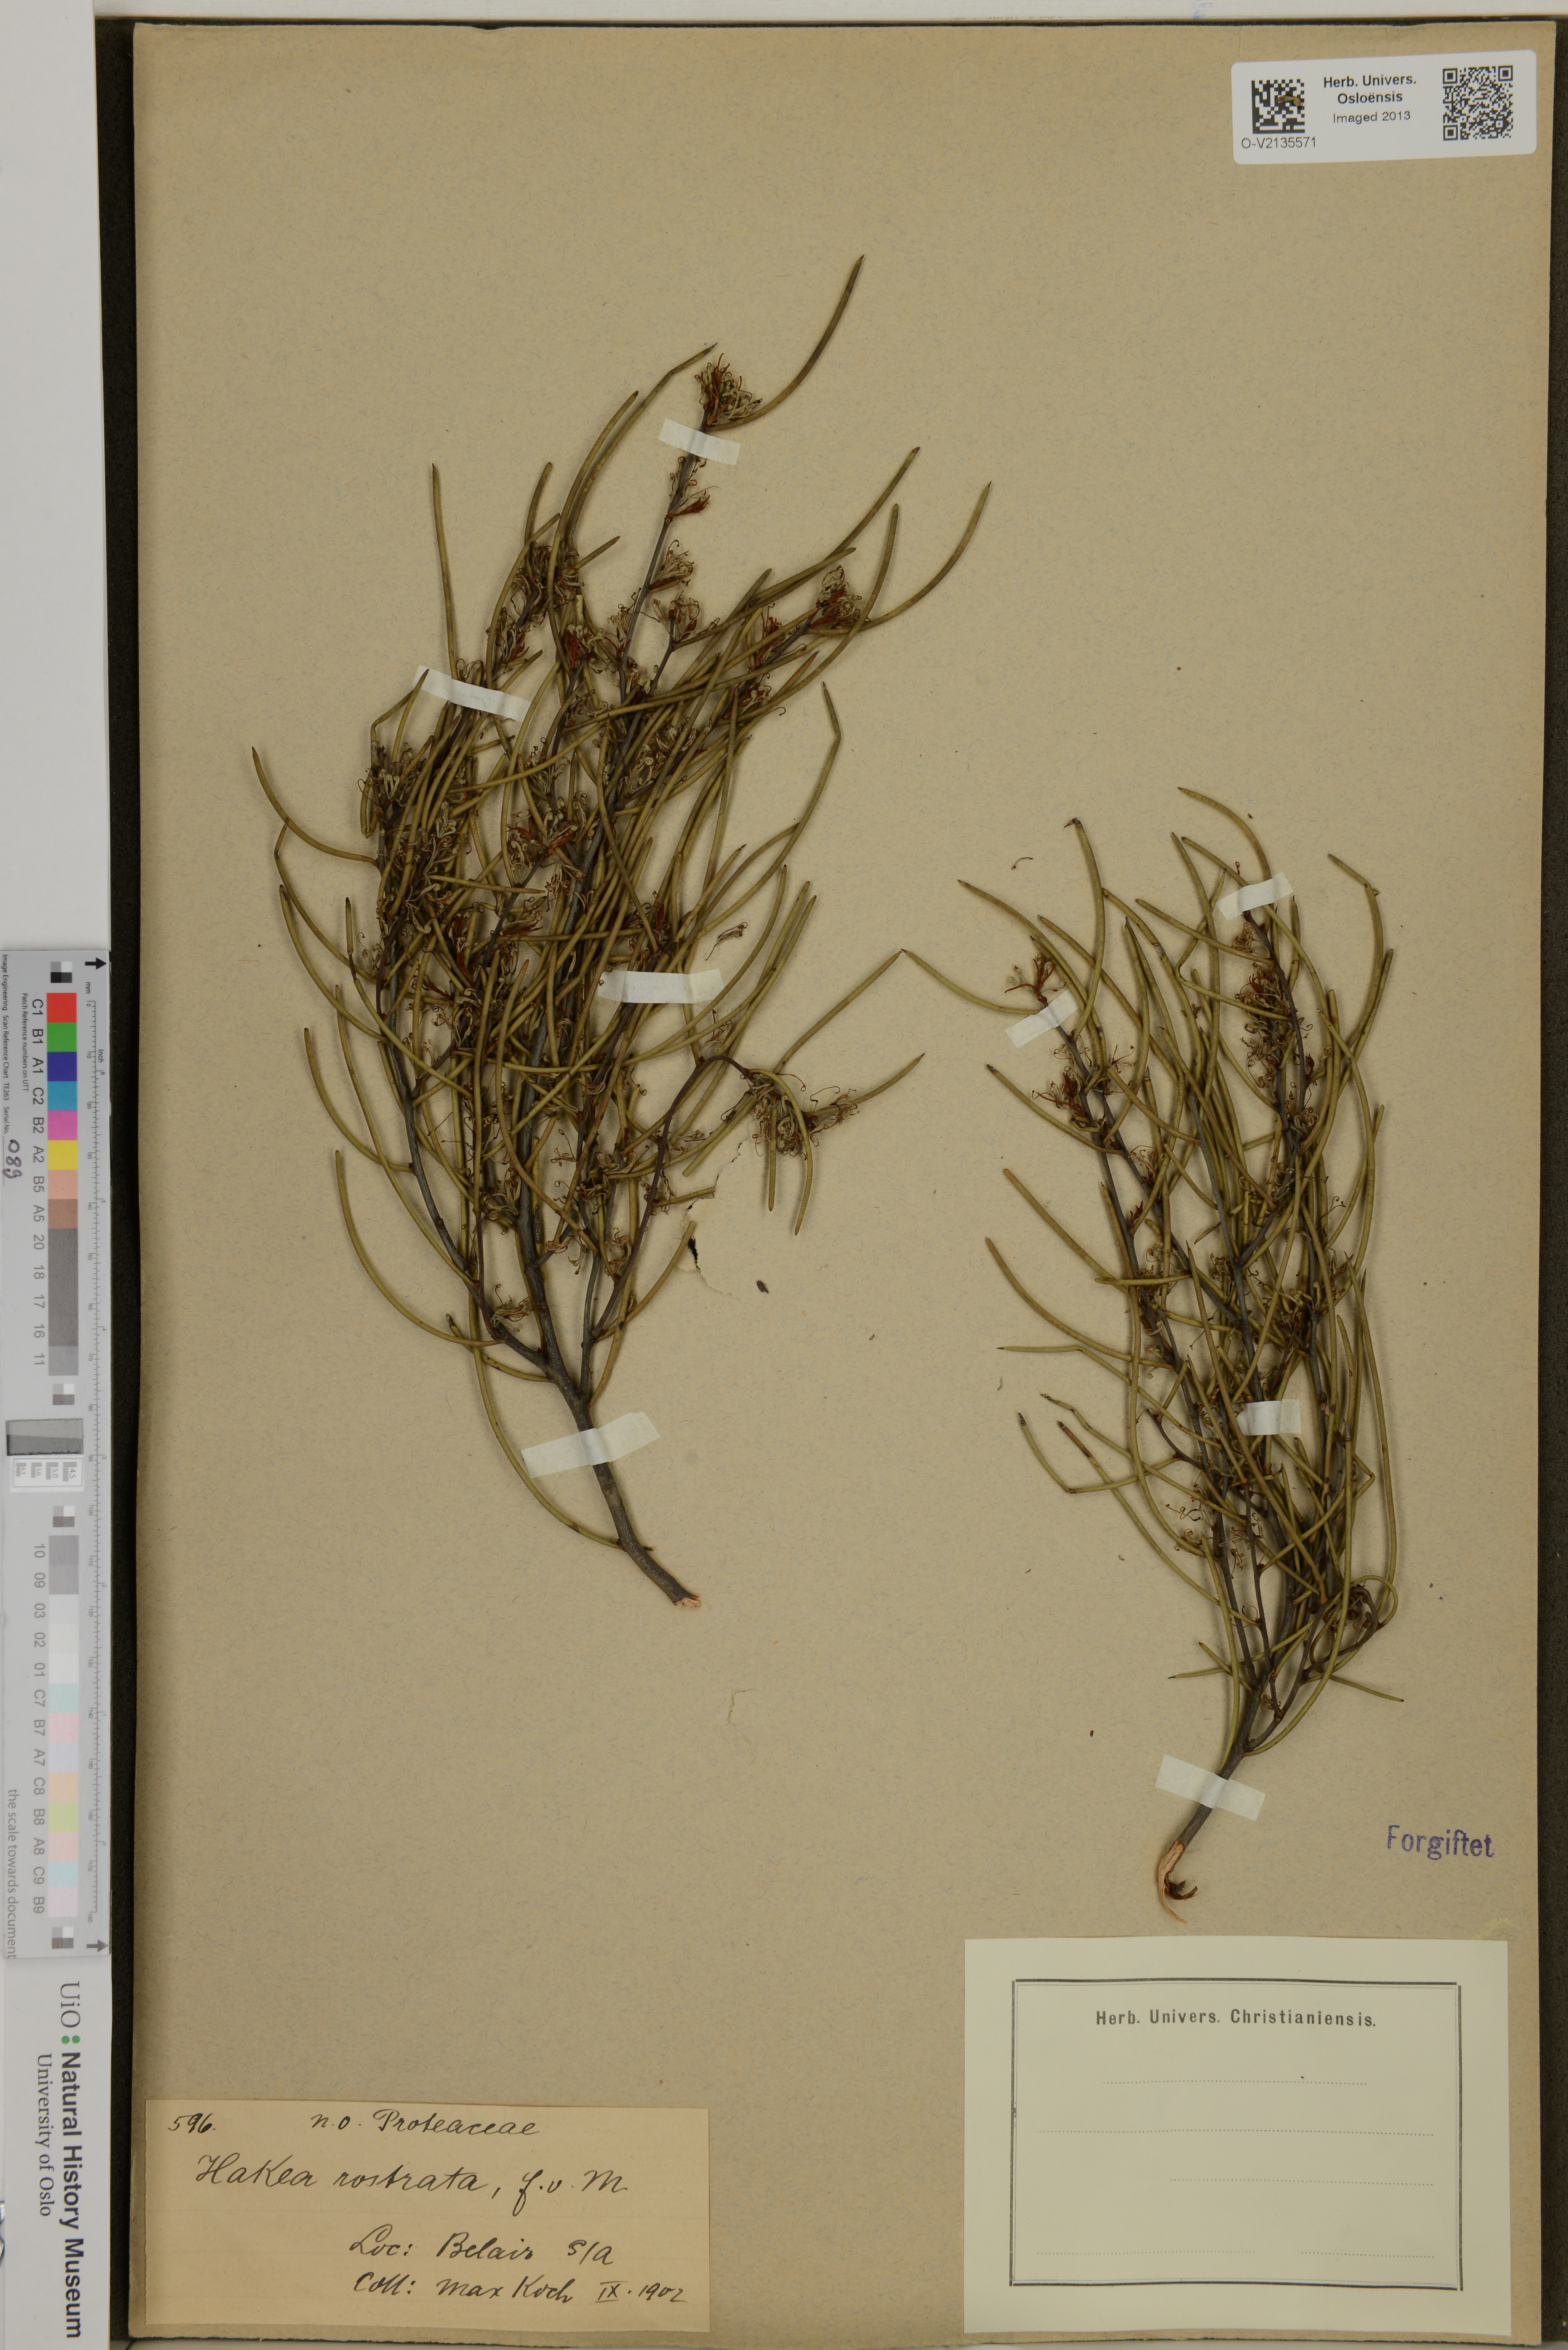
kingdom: Plantae
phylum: Tracheophyta
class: Magnoliopsida
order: Proteales
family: Proteaceae
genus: Hakea
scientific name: Hakea rostrata
